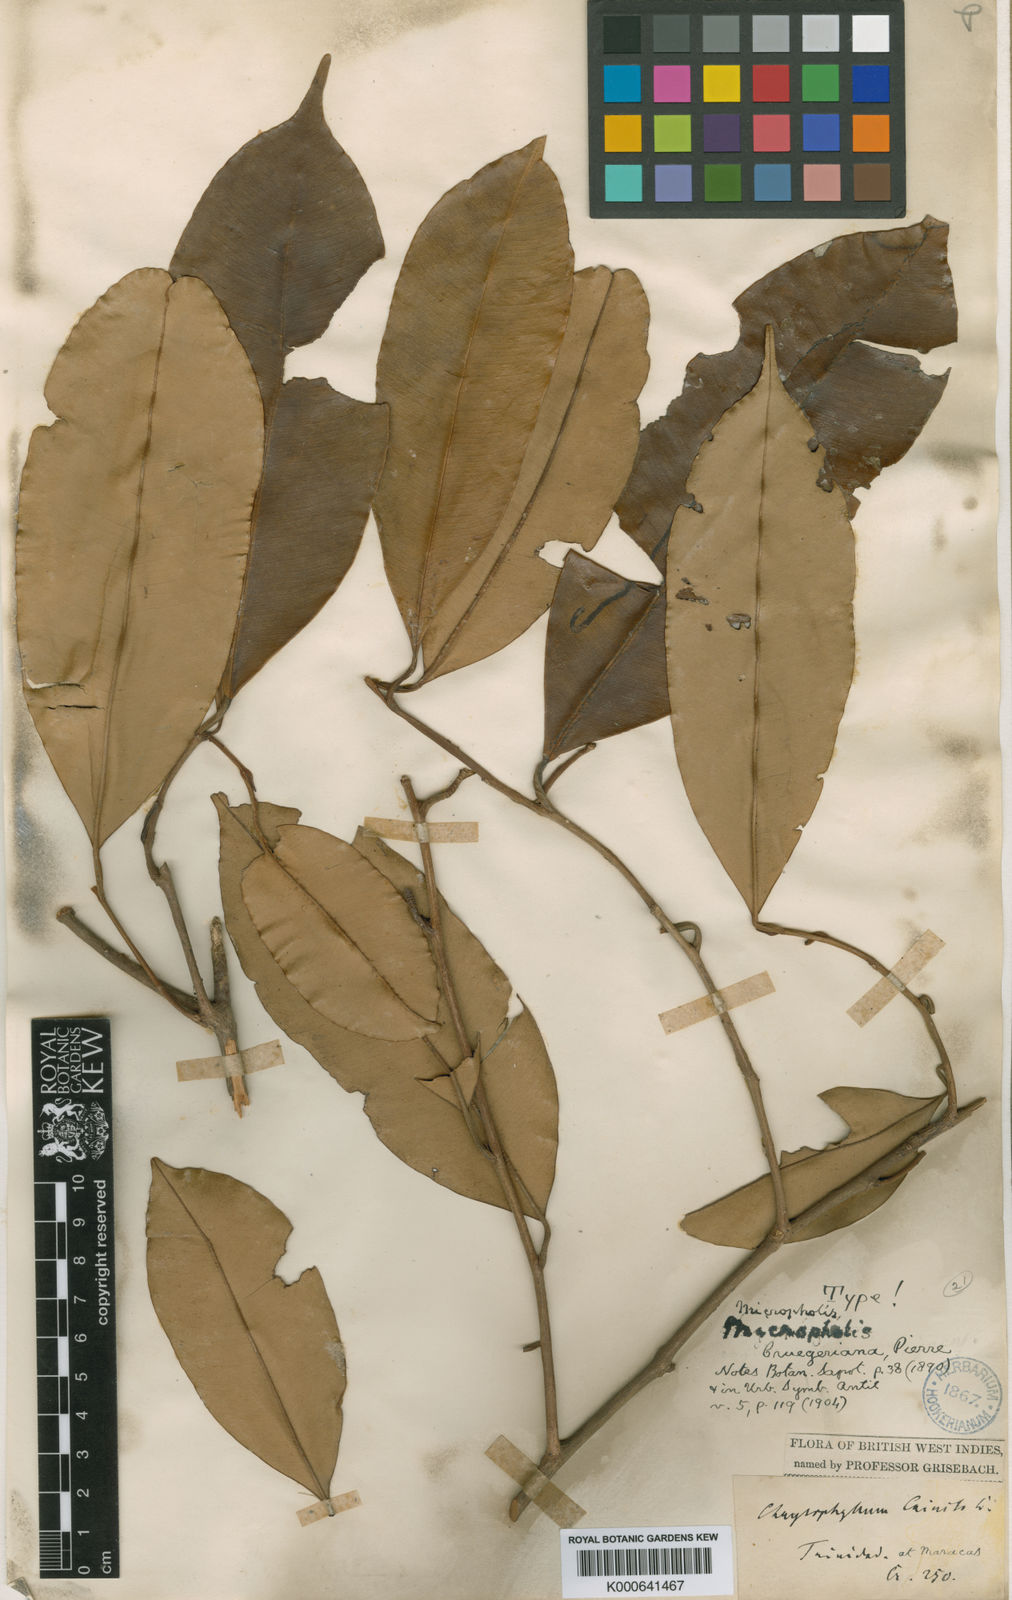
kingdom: Plantae
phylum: Tracheophyta
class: Magnoliopsida
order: Ericales
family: Sapotaceae
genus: Micropholis
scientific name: Micropholis guyanensis
